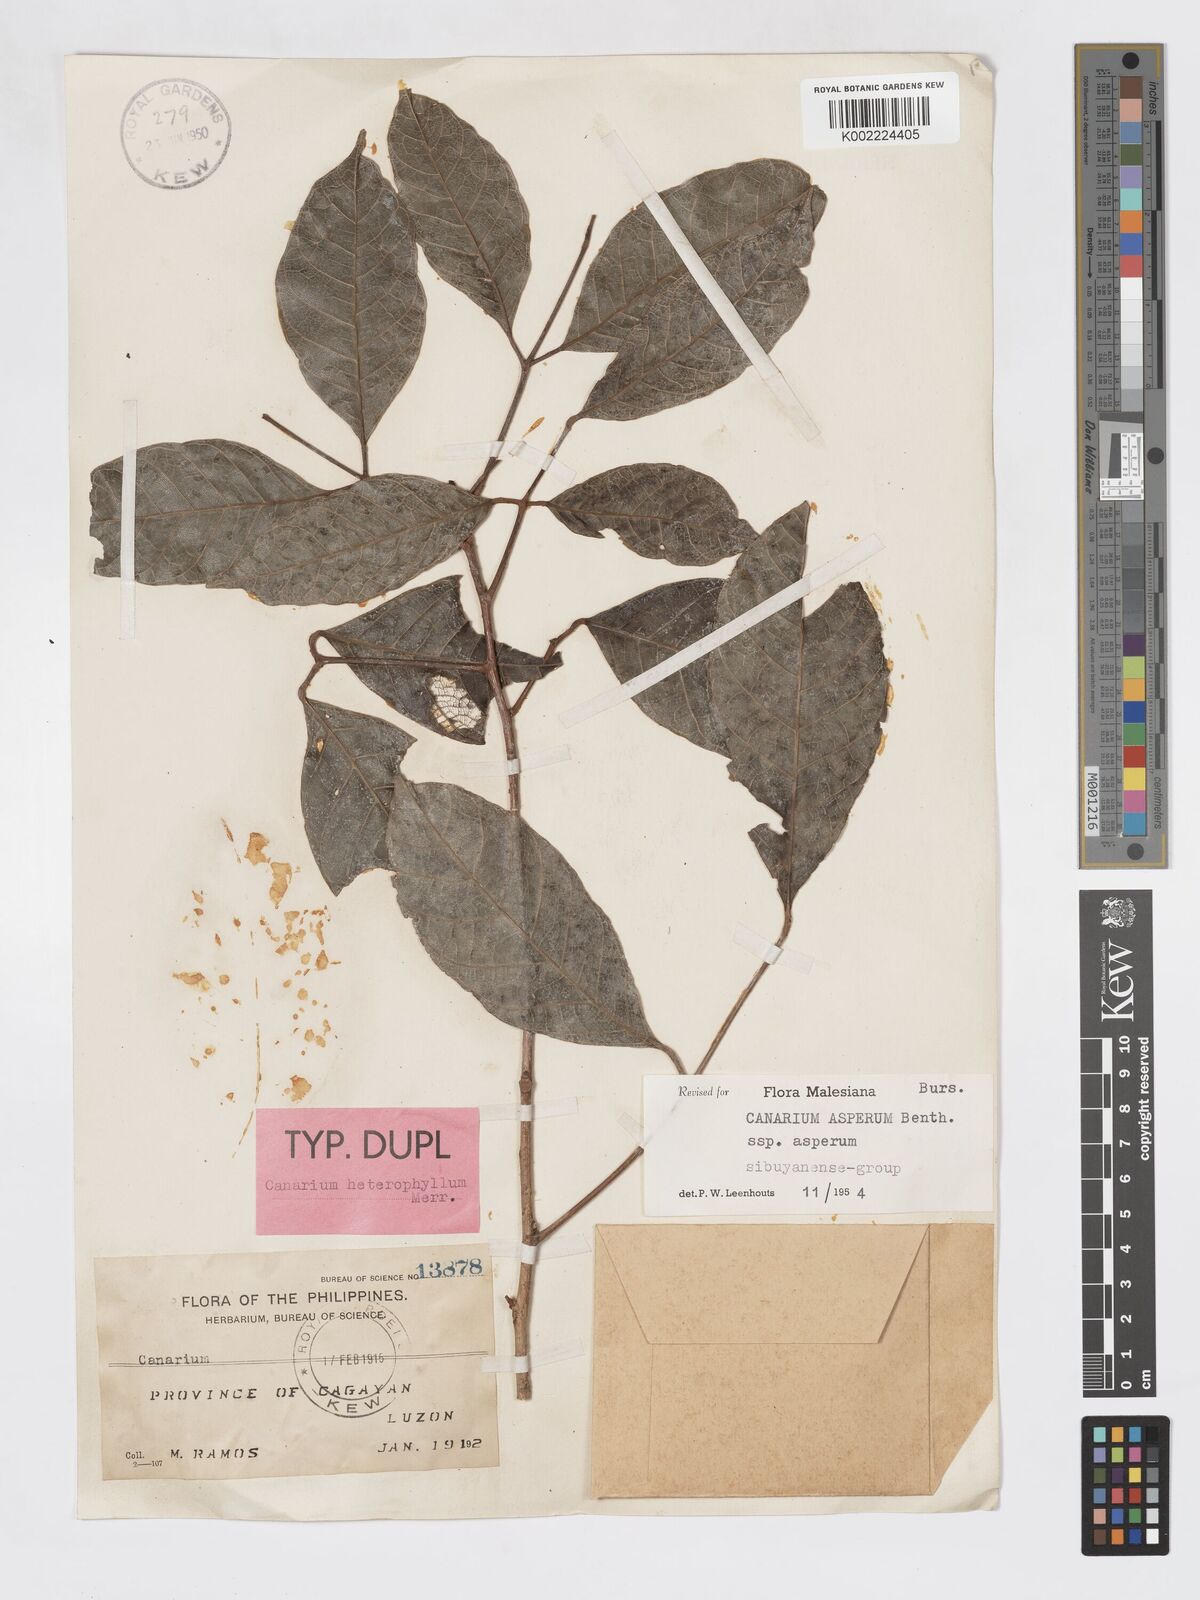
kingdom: Plantae
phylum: Tracheophyta
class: Magnoliopsida
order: Sapindales
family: Burseraceae
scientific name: Burseraceae
